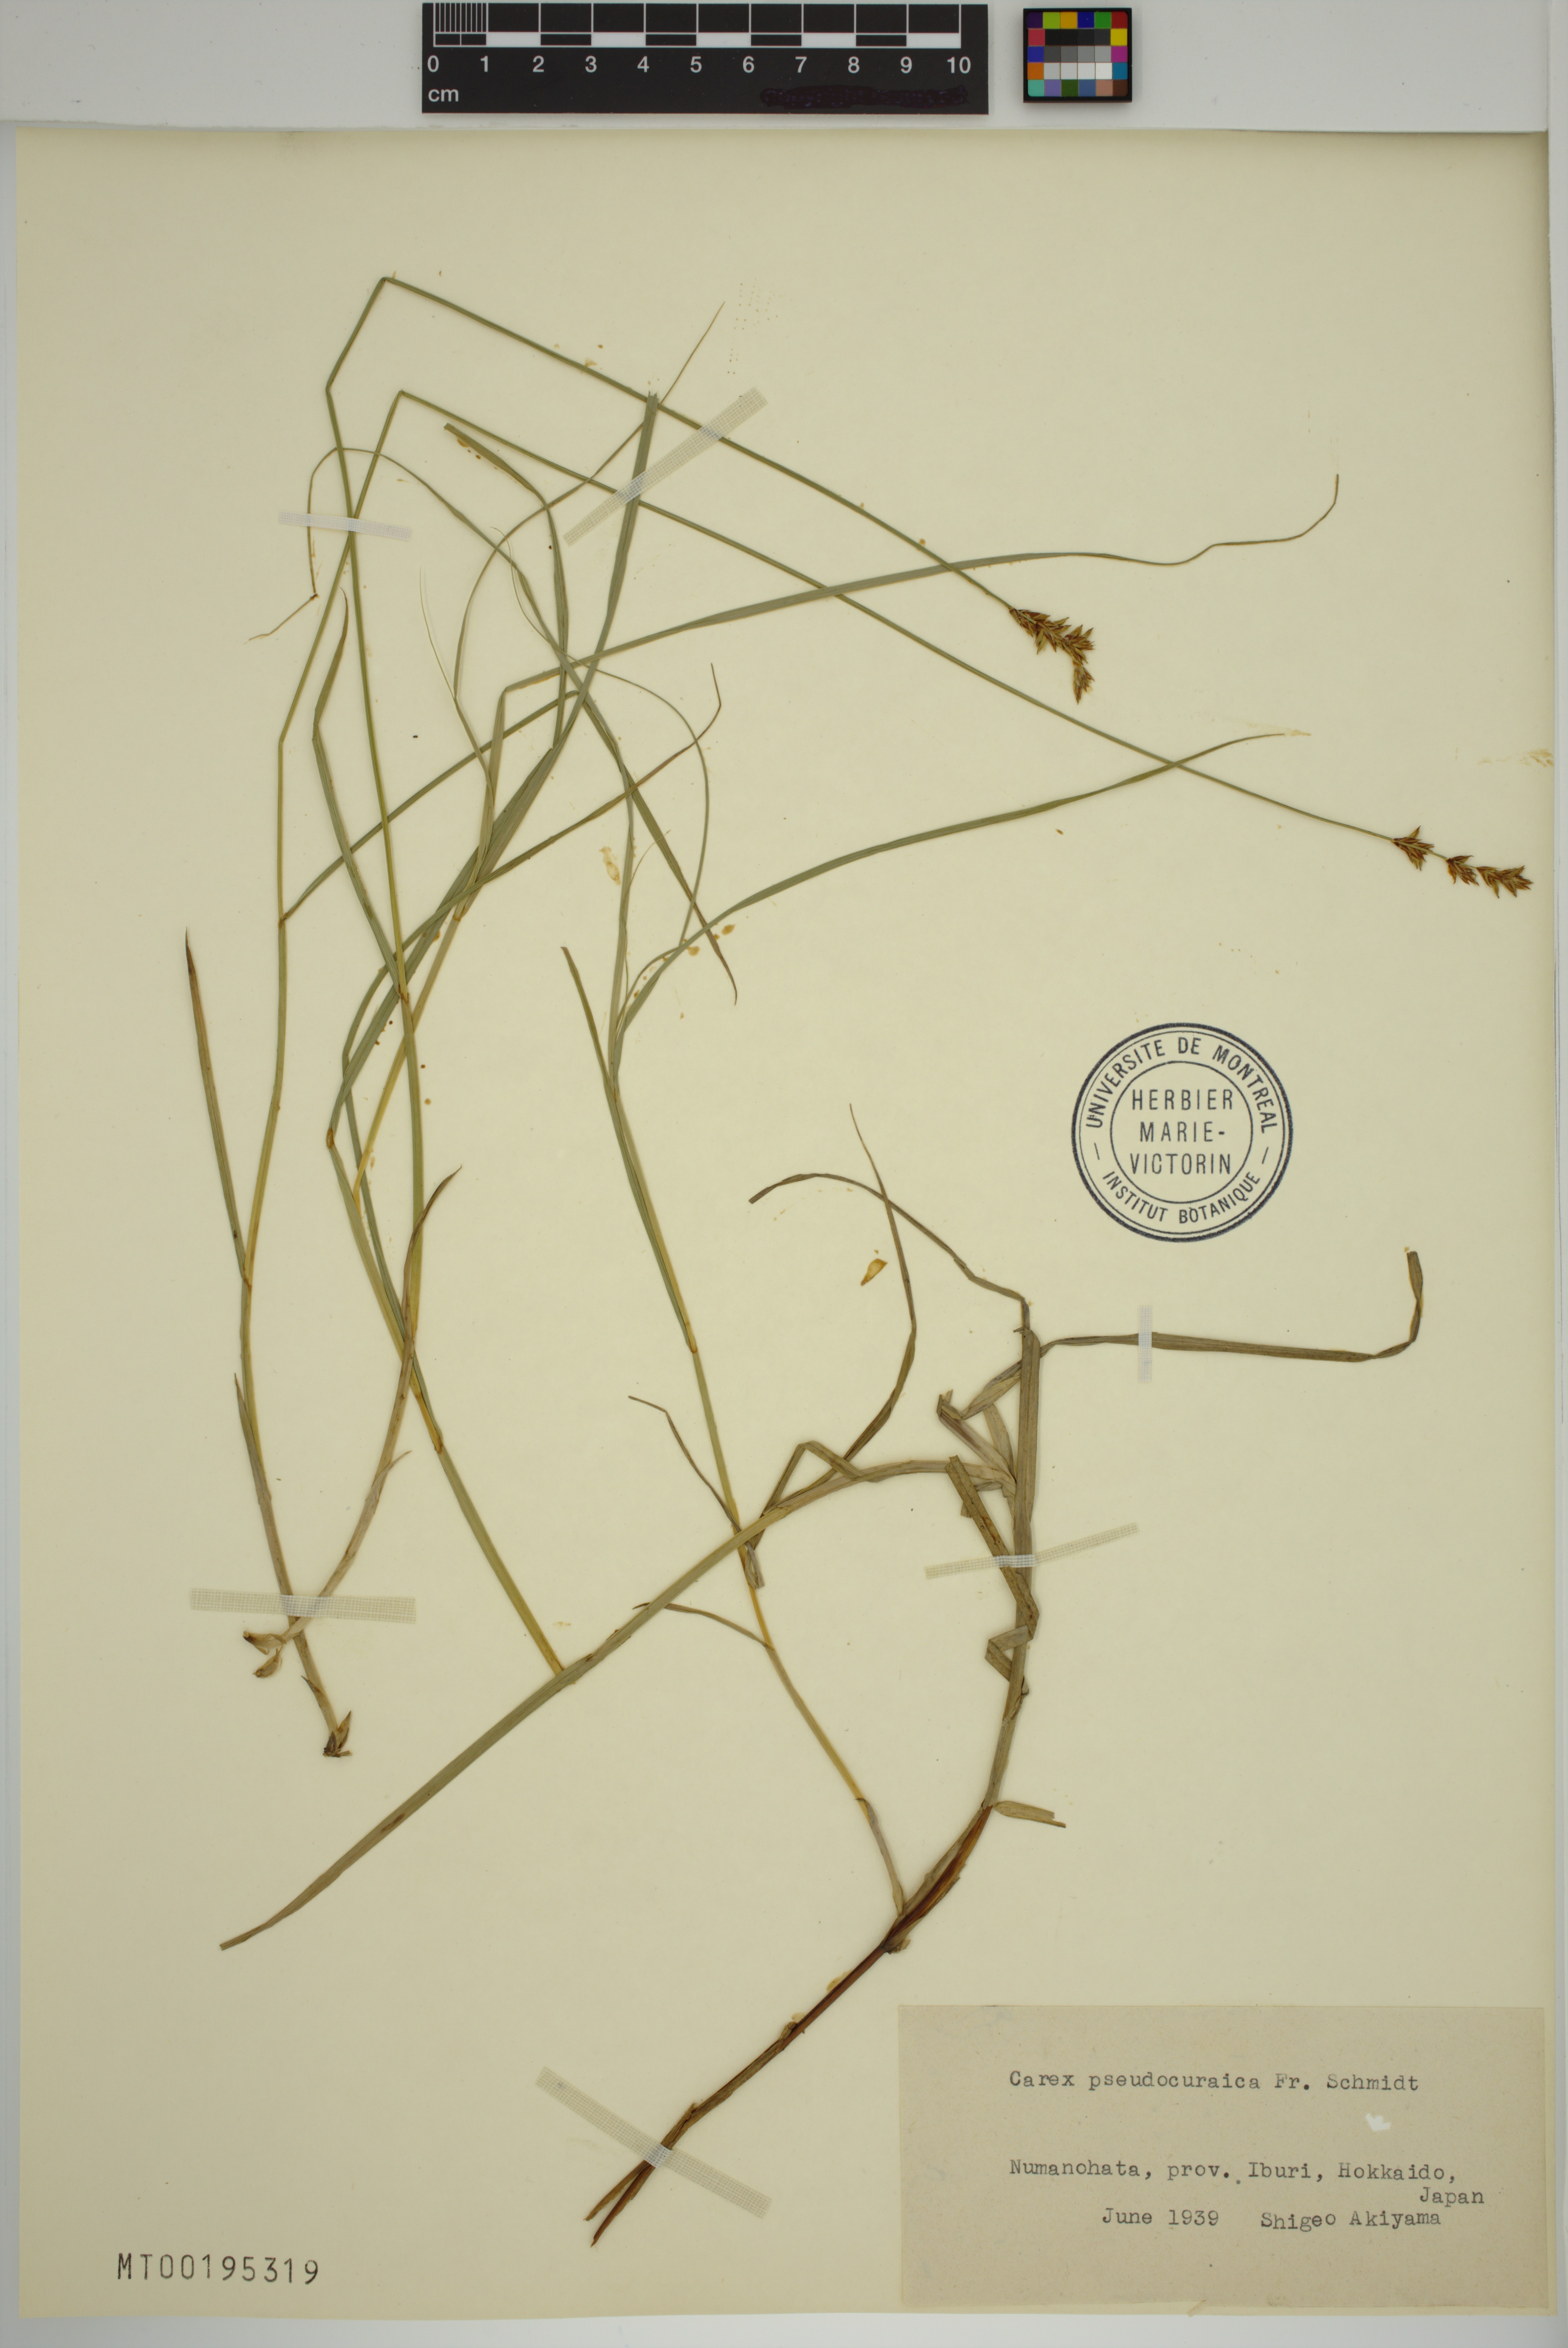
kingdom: Plantae
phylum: Tracheophyta
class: Liliopsida
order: Poales
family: Cyperaceae
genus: Carex
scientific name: Carex pseudocuraica
